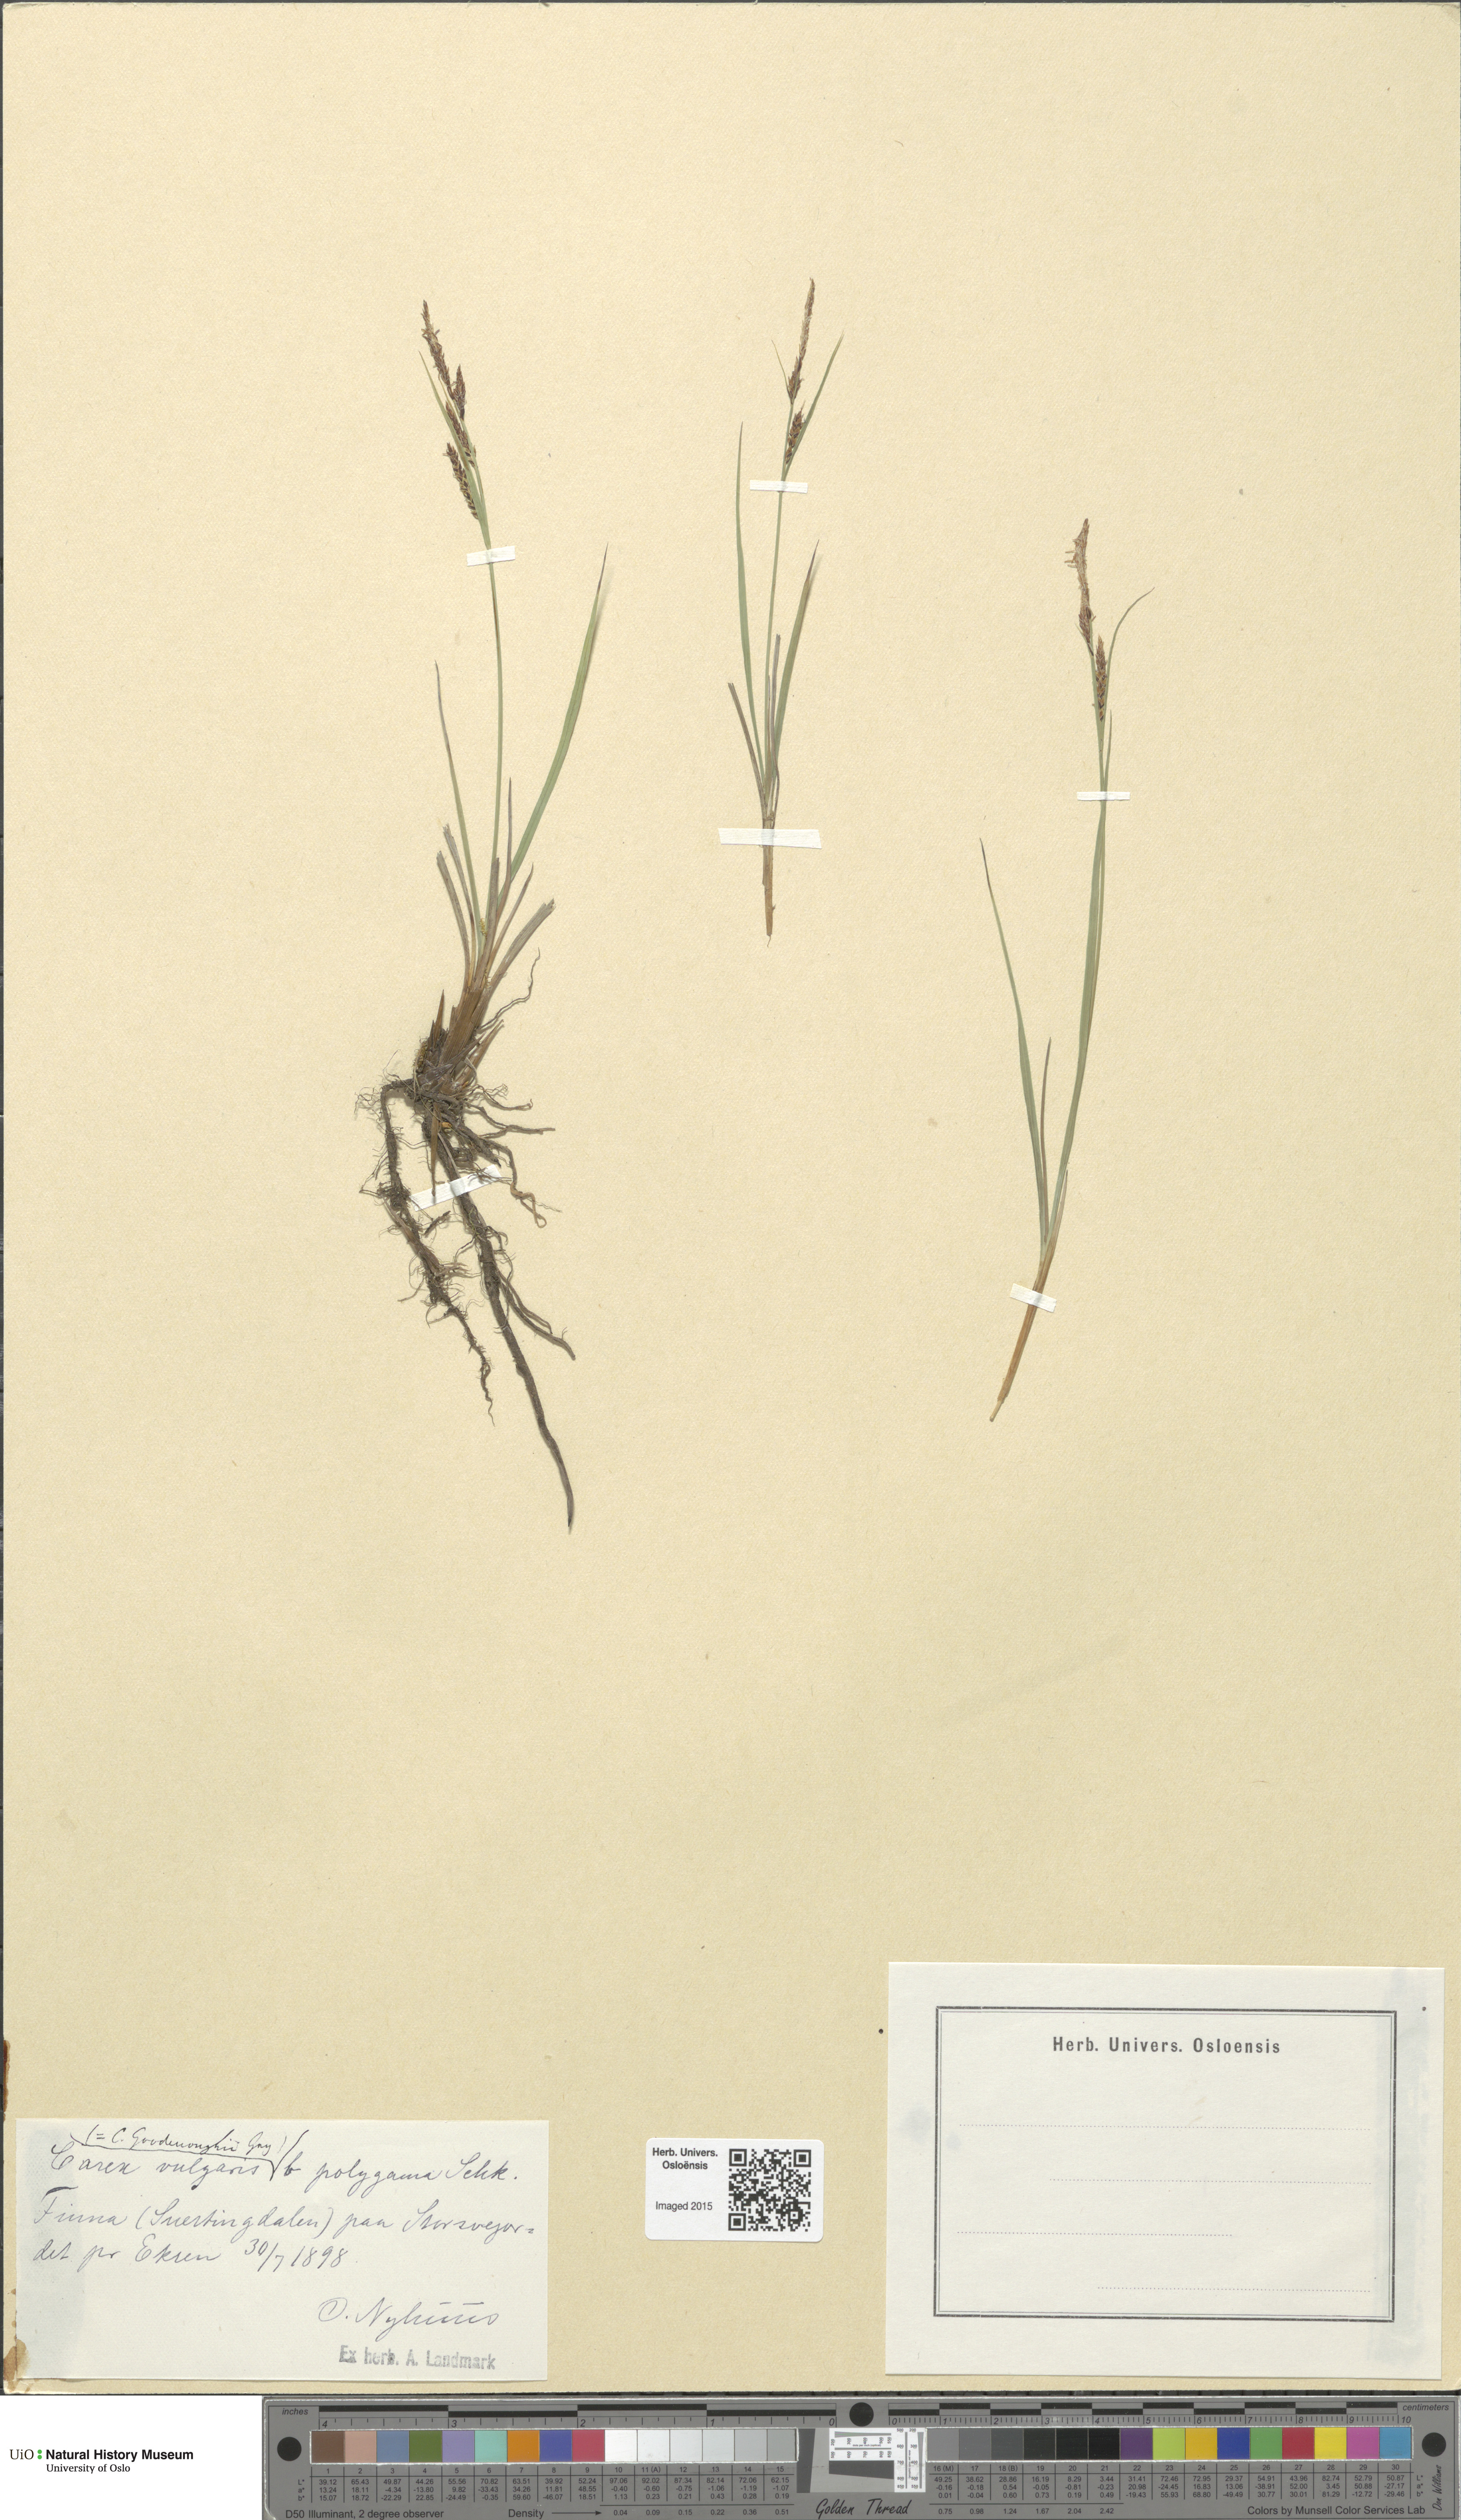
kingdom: Plantae
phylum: Tracheophyta
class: Liliopsida
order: Poales
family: Cyperaceae
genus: Carex
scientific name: Carex nigra
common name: Common sedge
